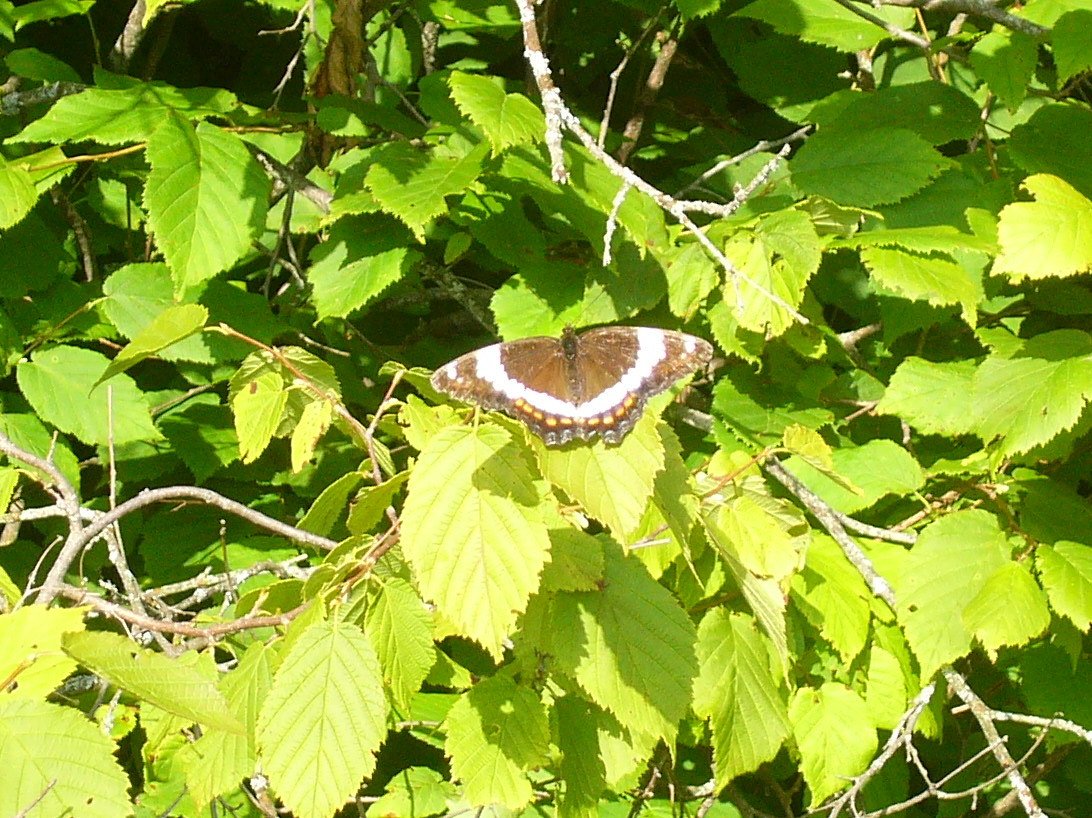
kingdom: Animalia
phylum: Arthropoda
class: Insecta
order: Lepidoptera
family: Nymphalidae
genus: Limenitis
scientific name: Limenitis arthemis
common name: Red-spotted Admiral
